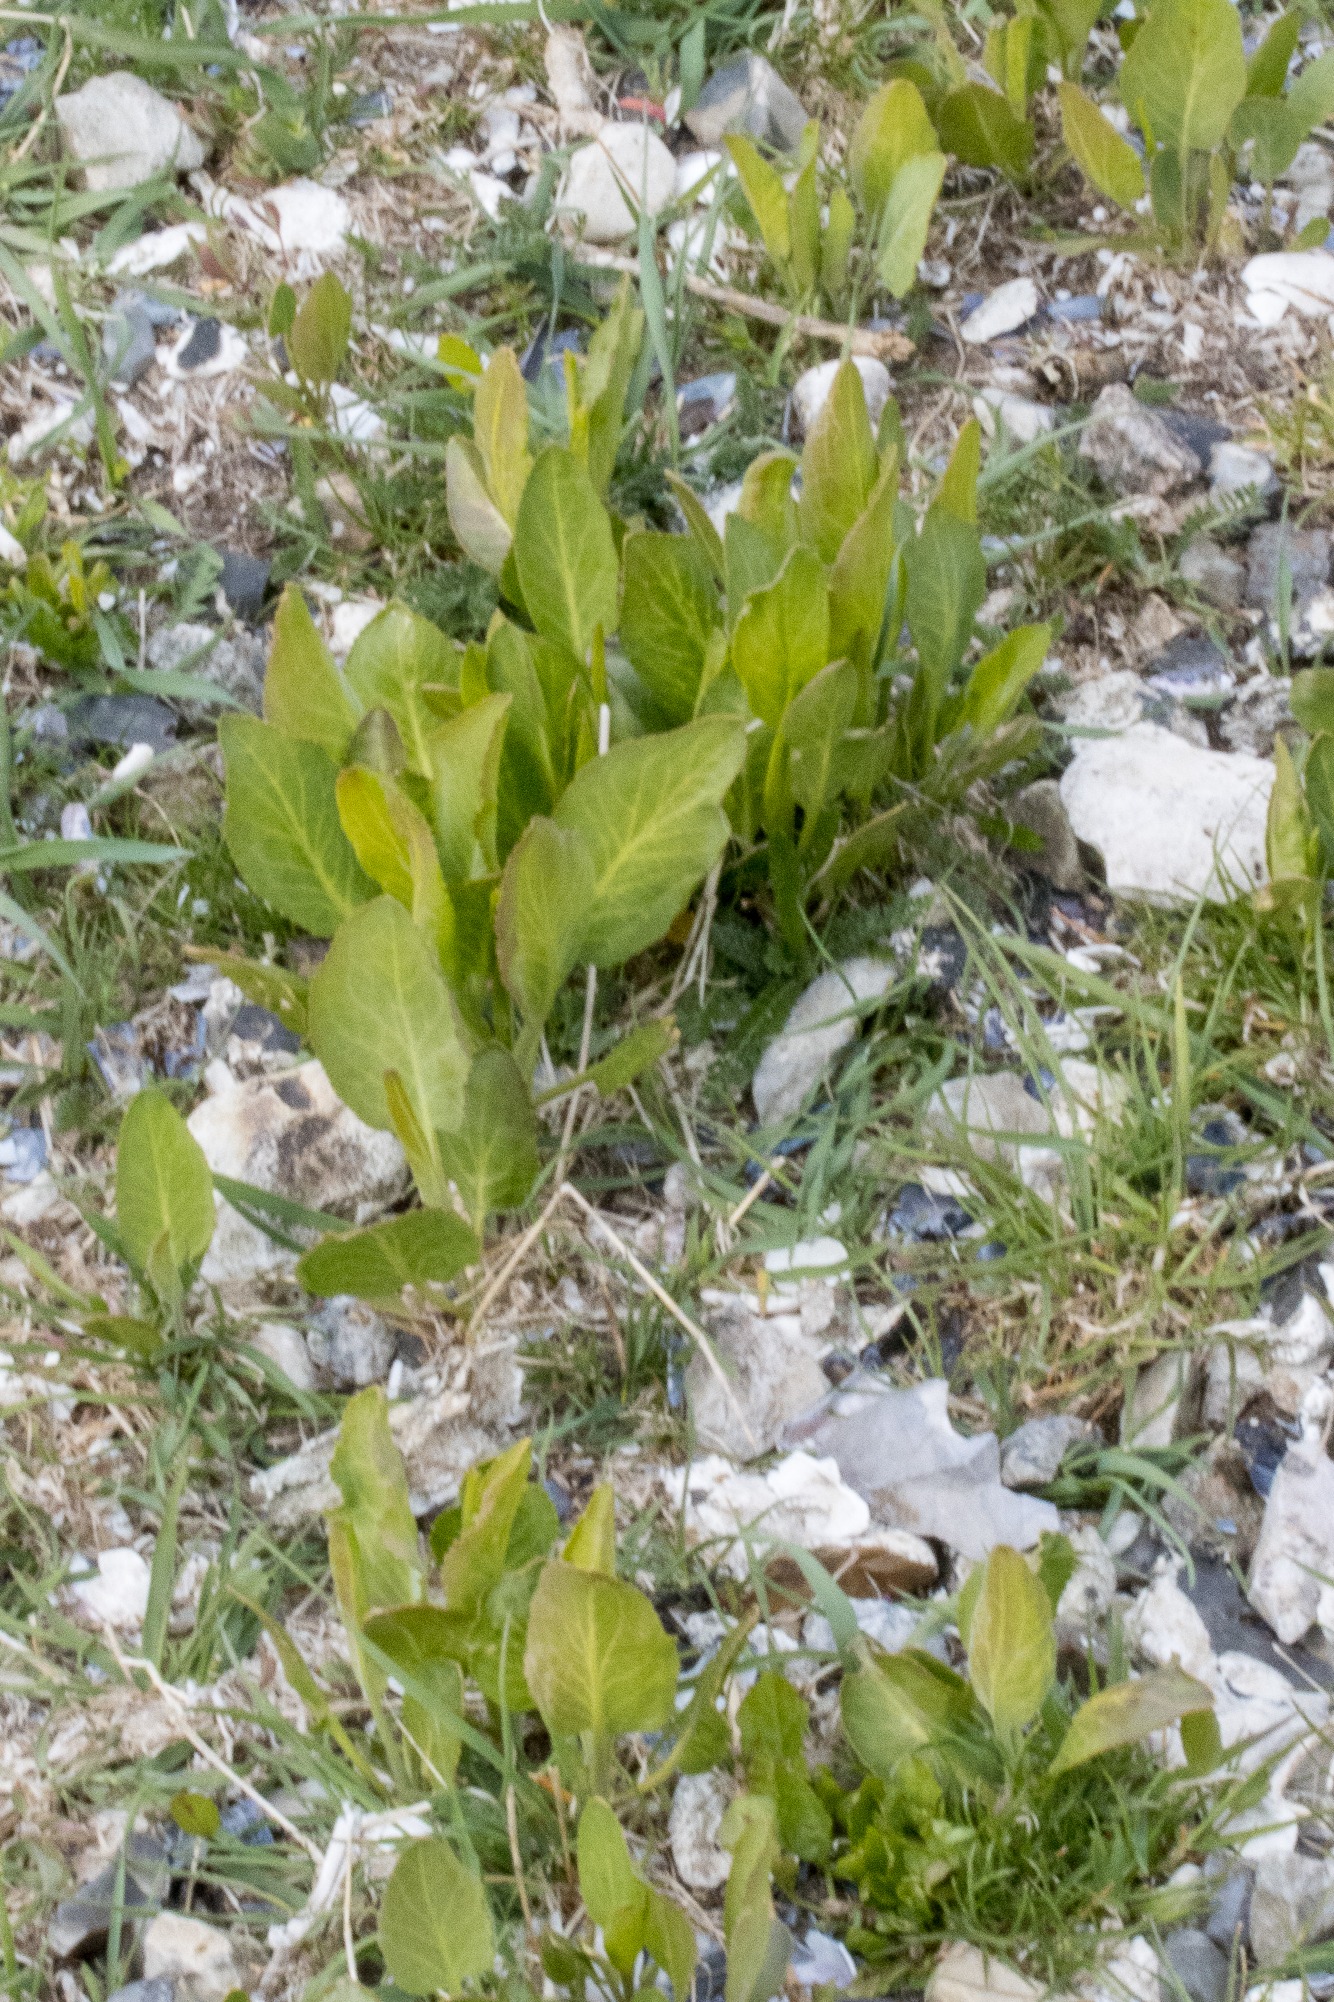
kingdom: Plantae
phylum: Tracheophyta
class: Magnoliopsida
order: Brassicales
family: Brassicaceae
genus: Lepidium
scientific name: Lepidium latifolium
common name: Strand-karse
